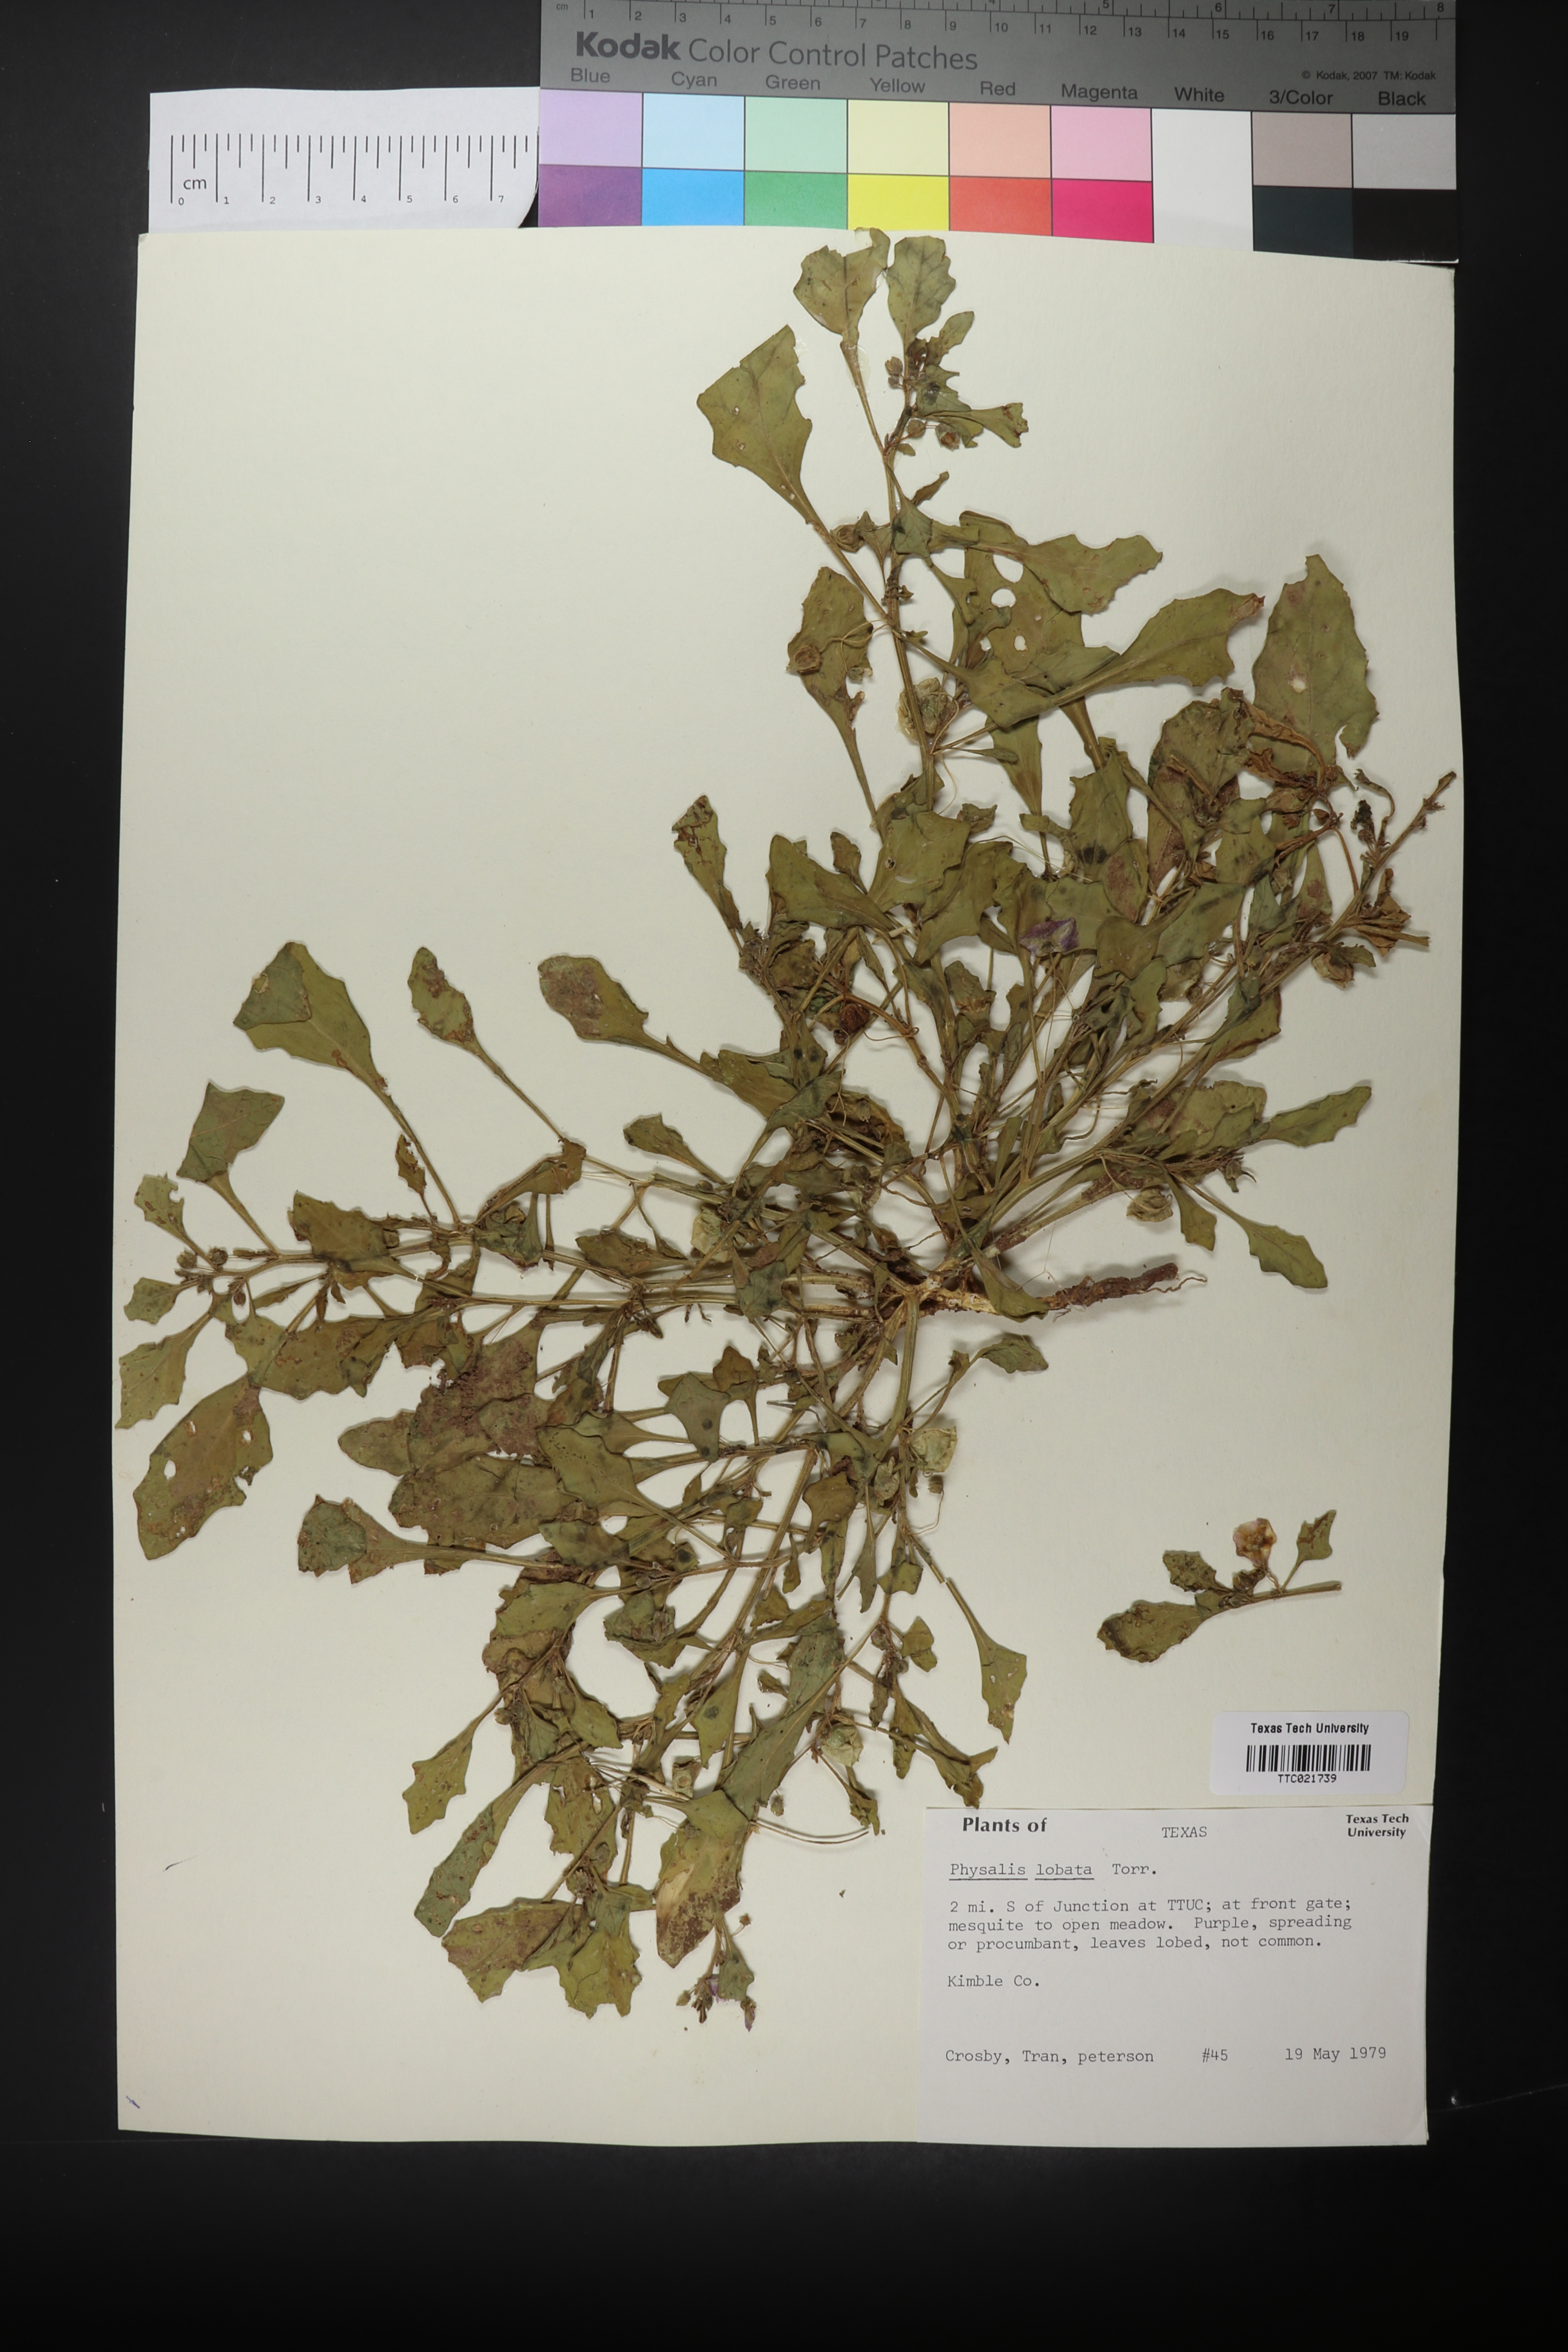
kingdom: Plantae
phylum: Tracheophyta
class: Magnoliopsida
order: Solanales
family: Solanaceae
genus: Quincula
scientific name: Quincula lobata
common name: Purple-ground-cherry
